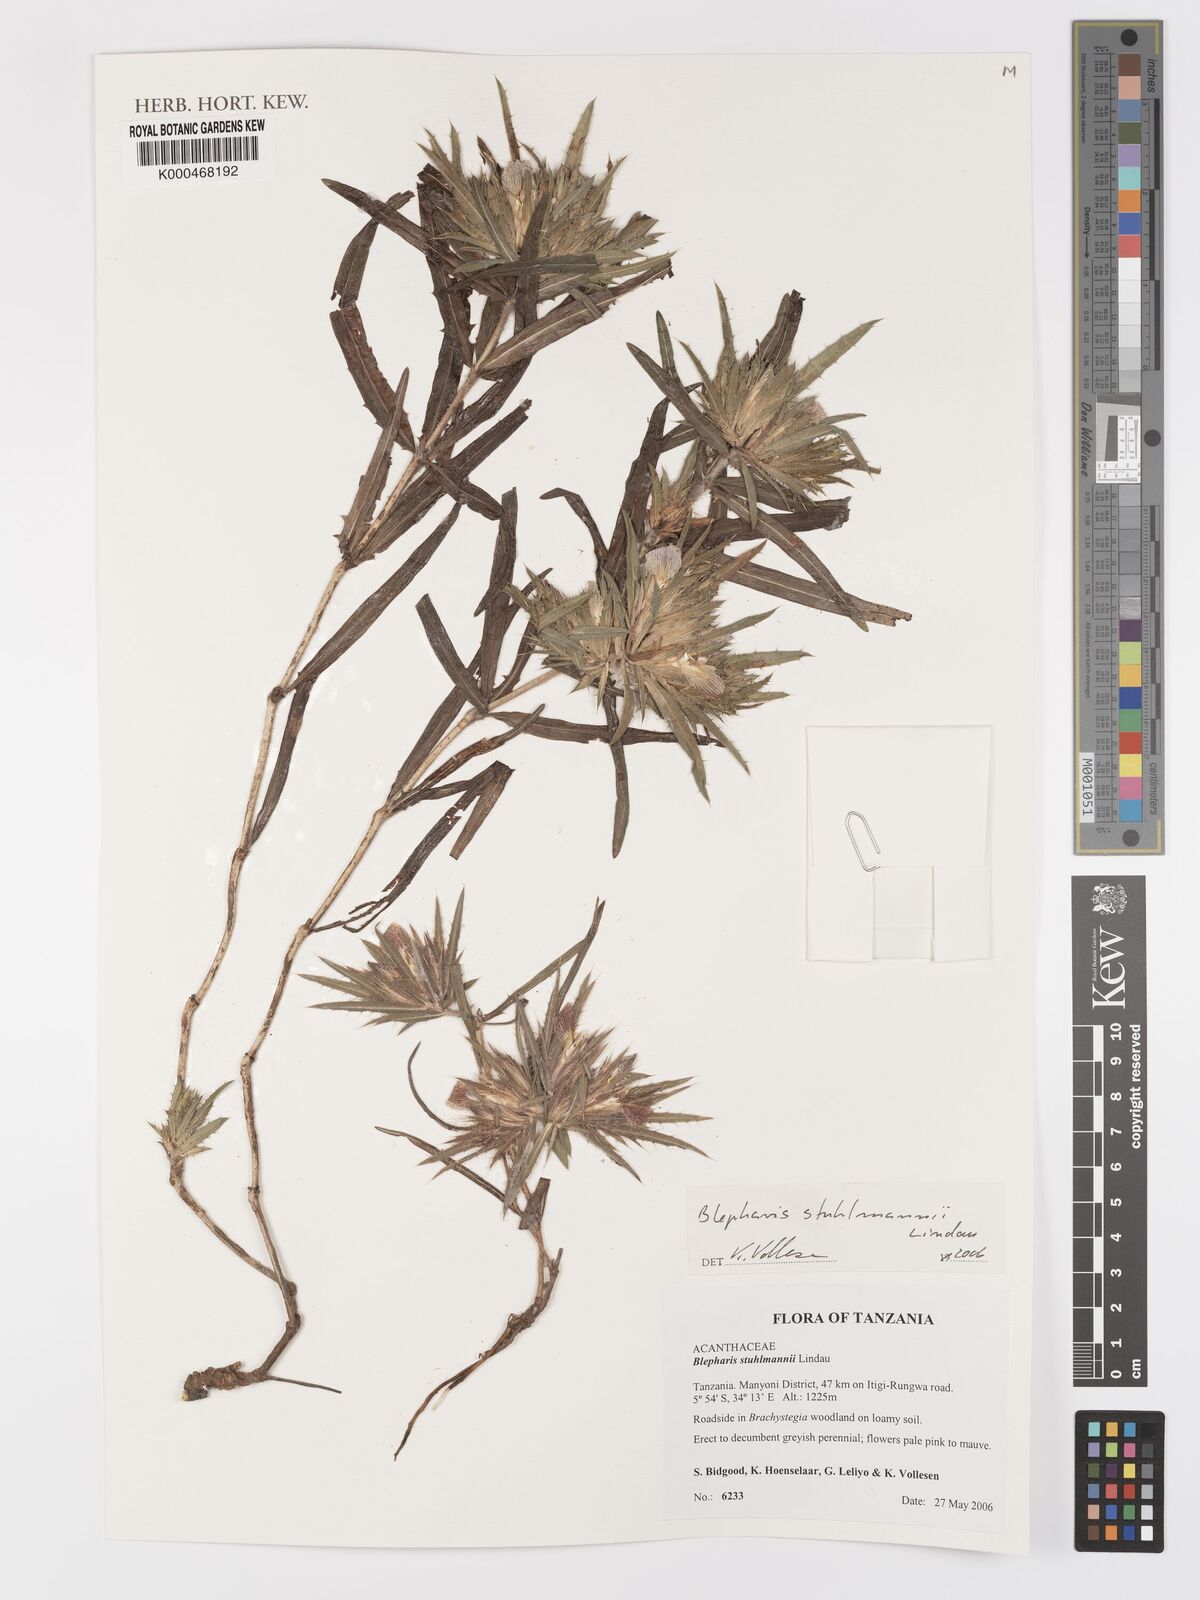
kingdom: Plantae
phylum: Tracheophyta
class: Magnoliopsida
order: Lamiales
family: Acanthaceae
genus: Blepharis
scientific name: Blepharis stuhlmannii
